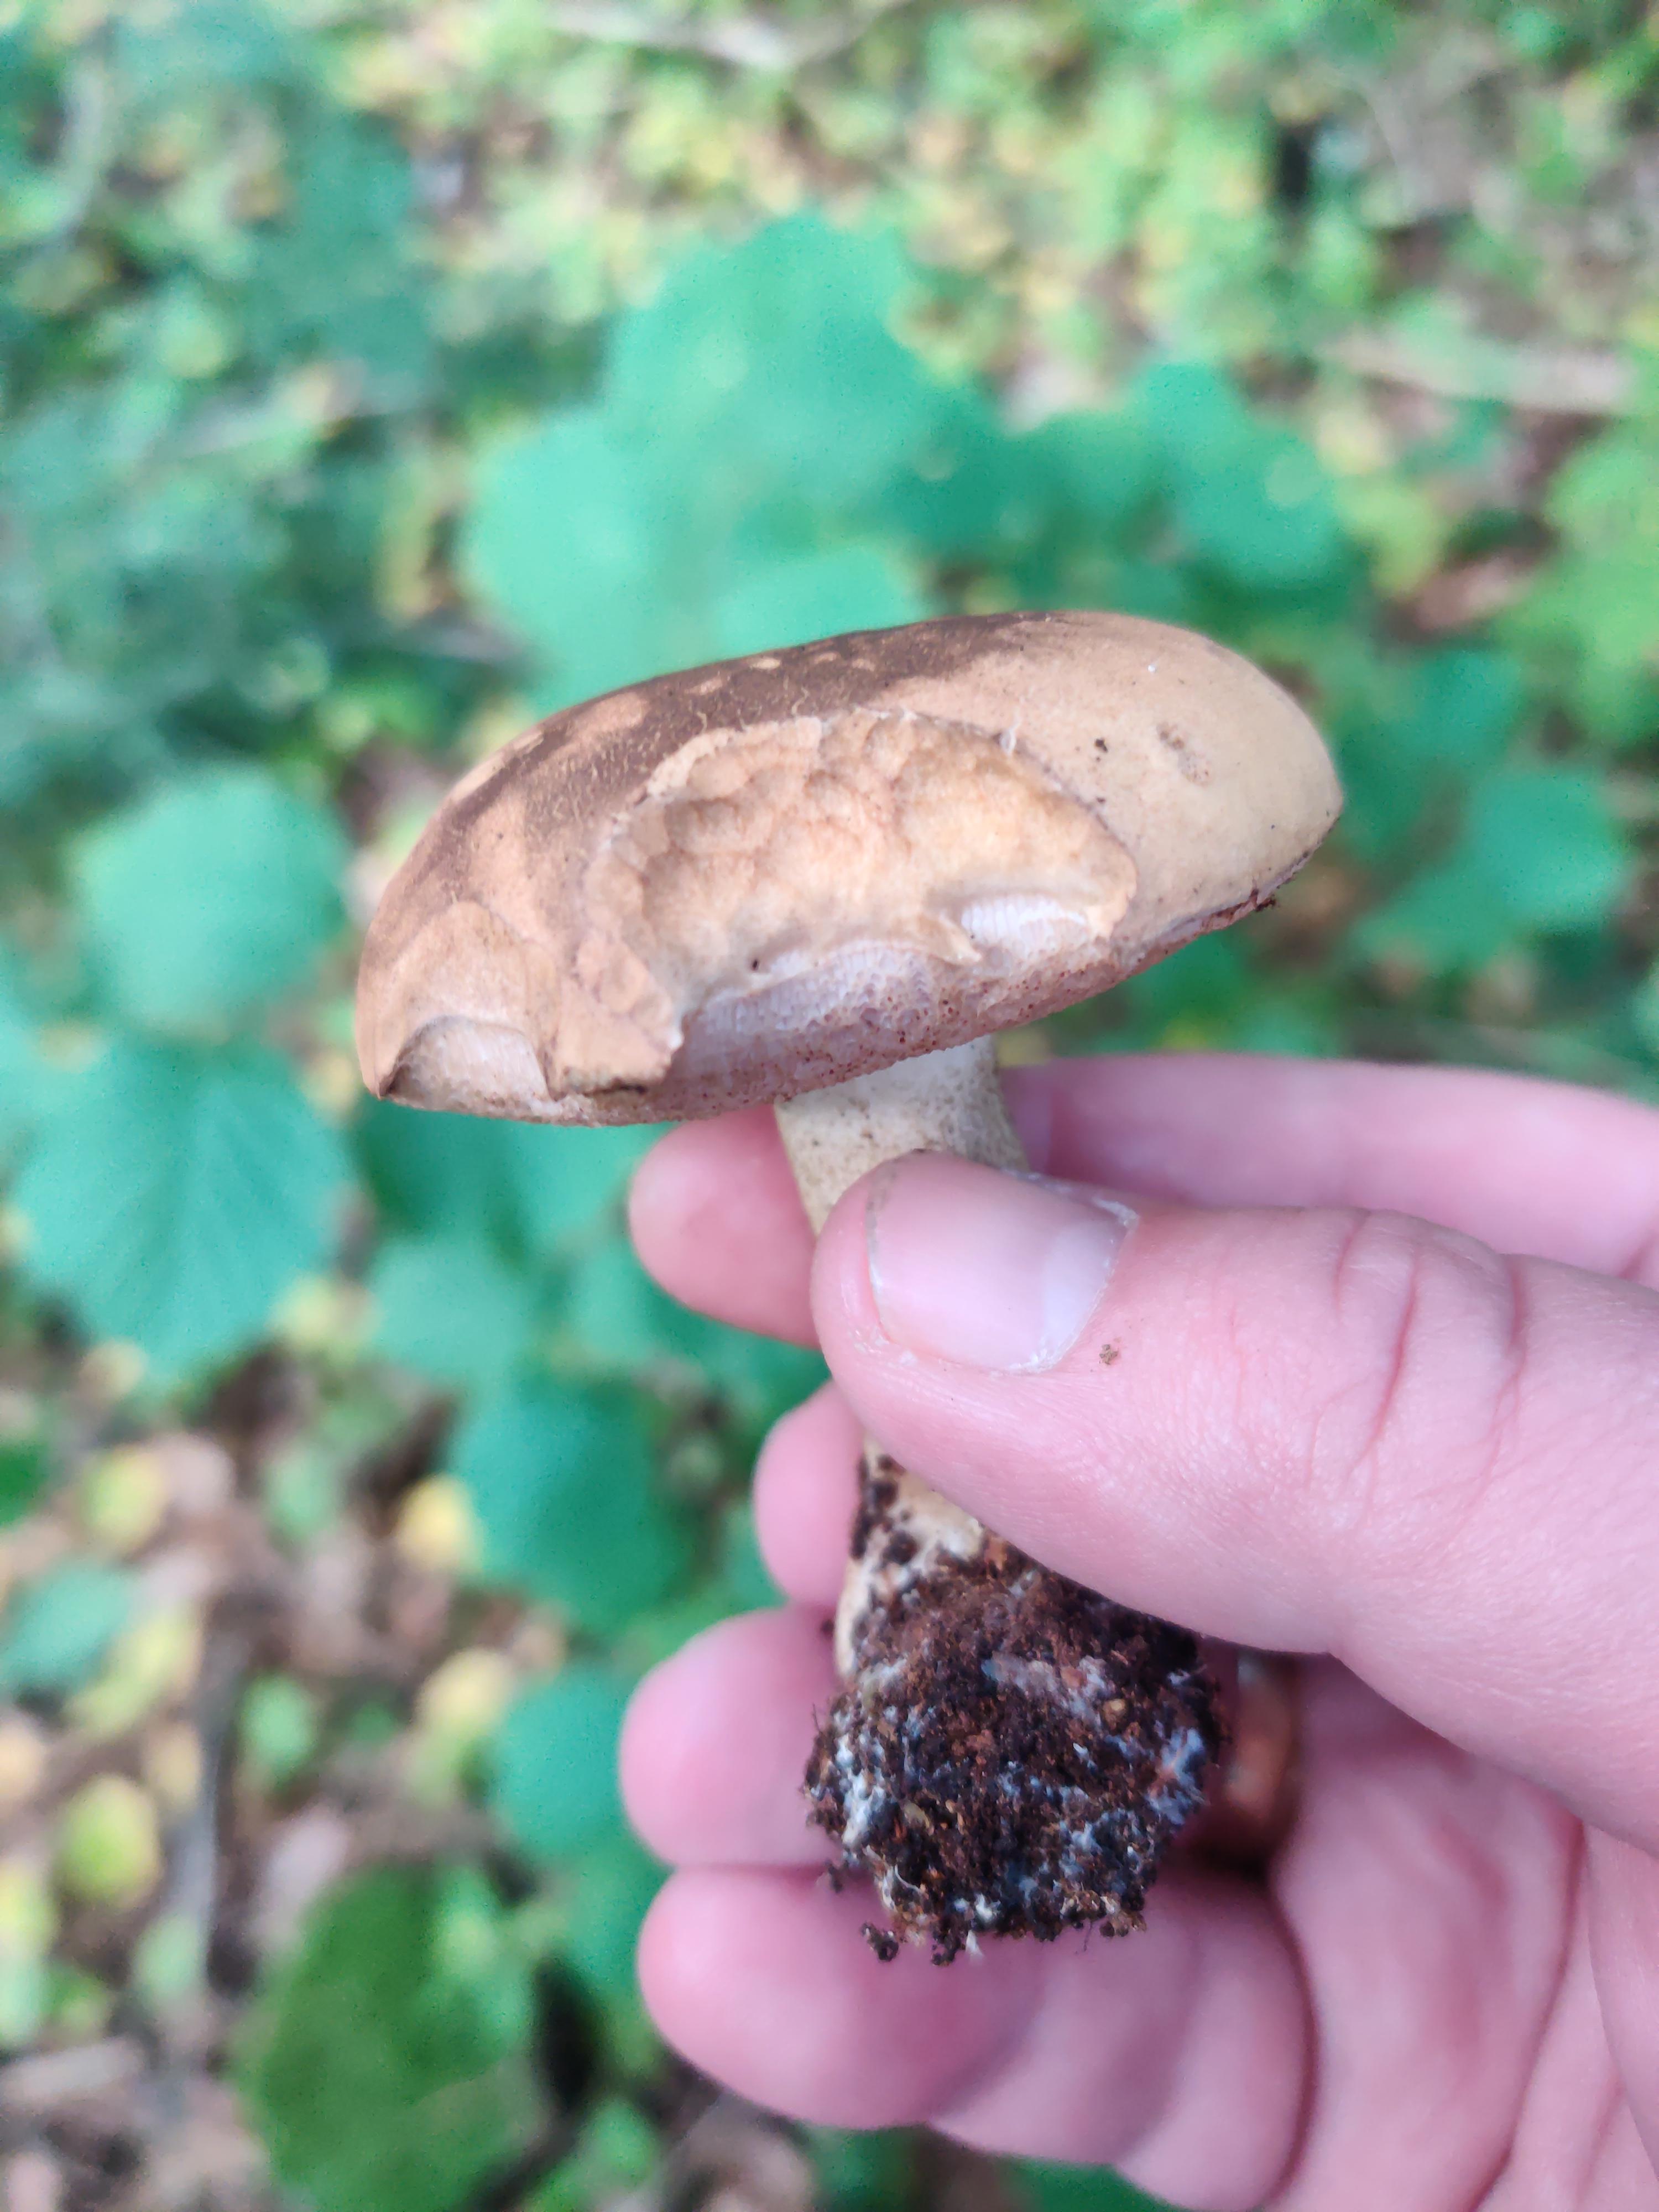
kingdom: Fungi
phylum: Basidiomycota
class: Agaricomycetes
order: Boletales
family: Boletaceae
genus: Tylopilus
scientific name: Tylopilus felleus
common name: galderørhat
